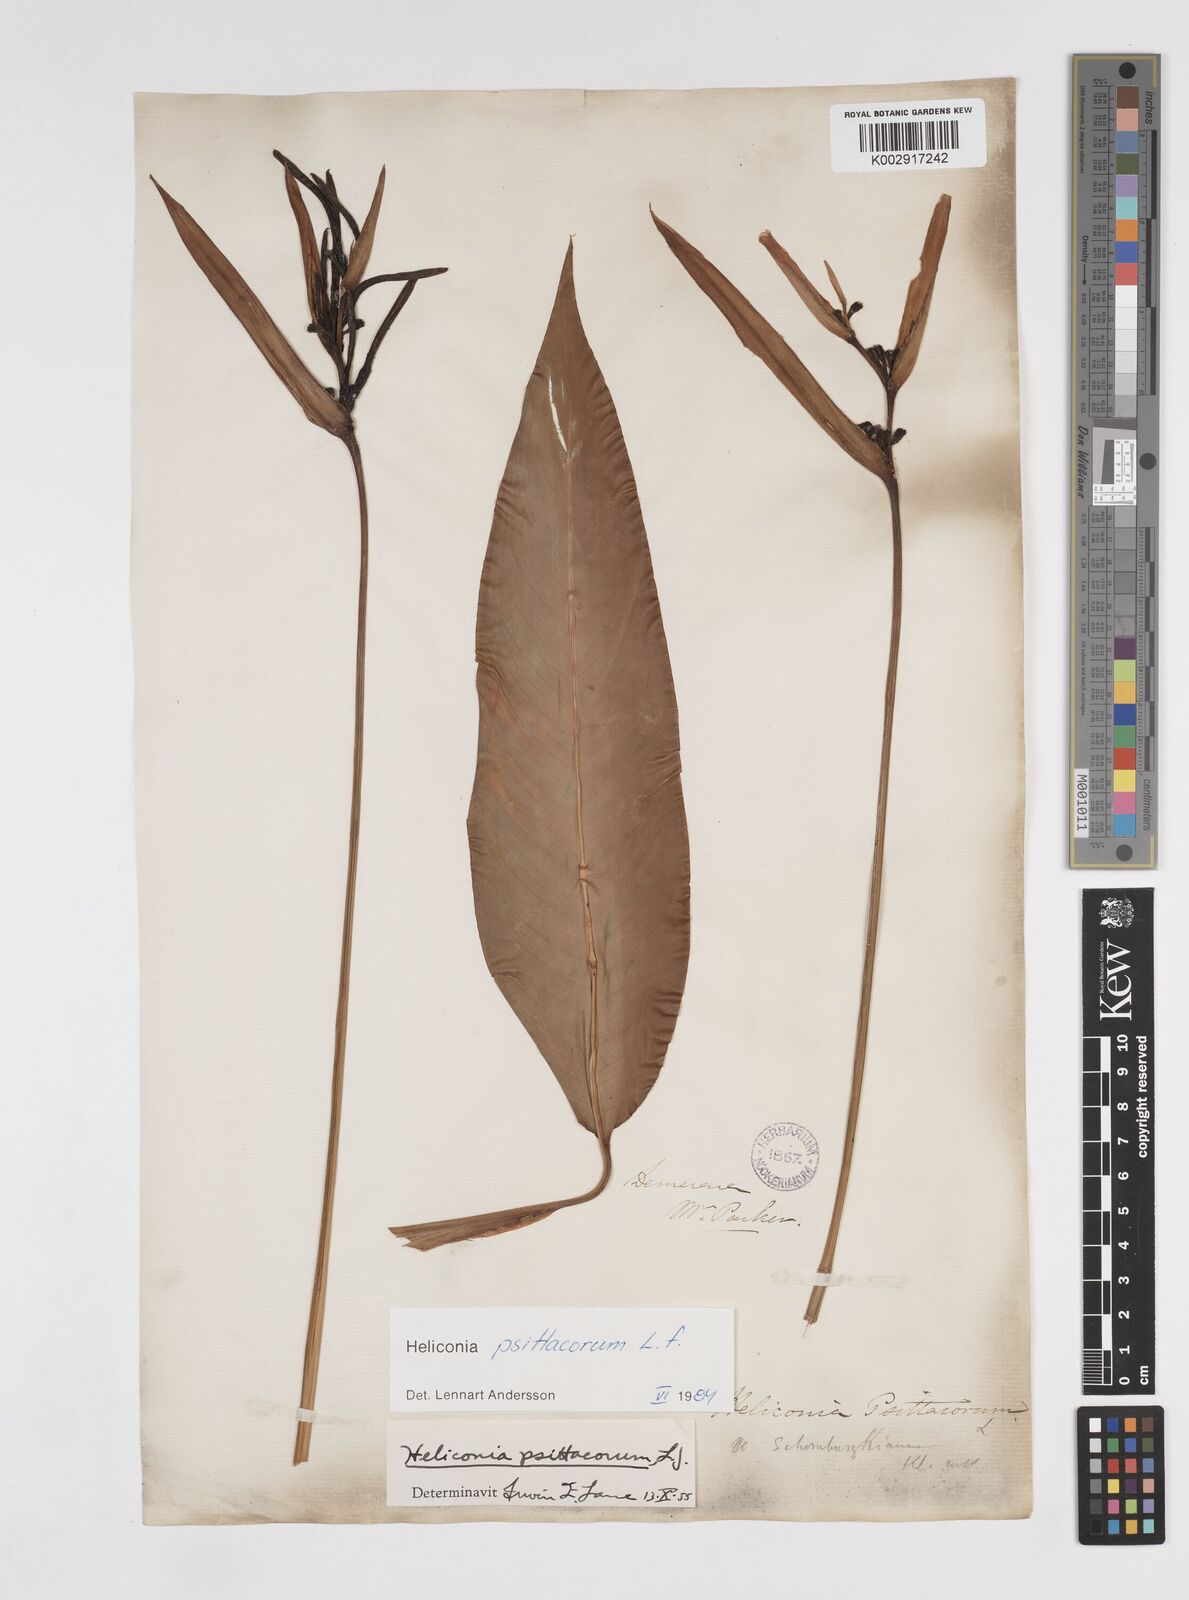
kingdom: Plantae
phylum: Tracheophyta
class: Liliopsida
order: Zingiberales
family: Heliconiaceae
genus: Heliconia
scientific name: Heliconia psittacorum
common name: Parrot's-flower
